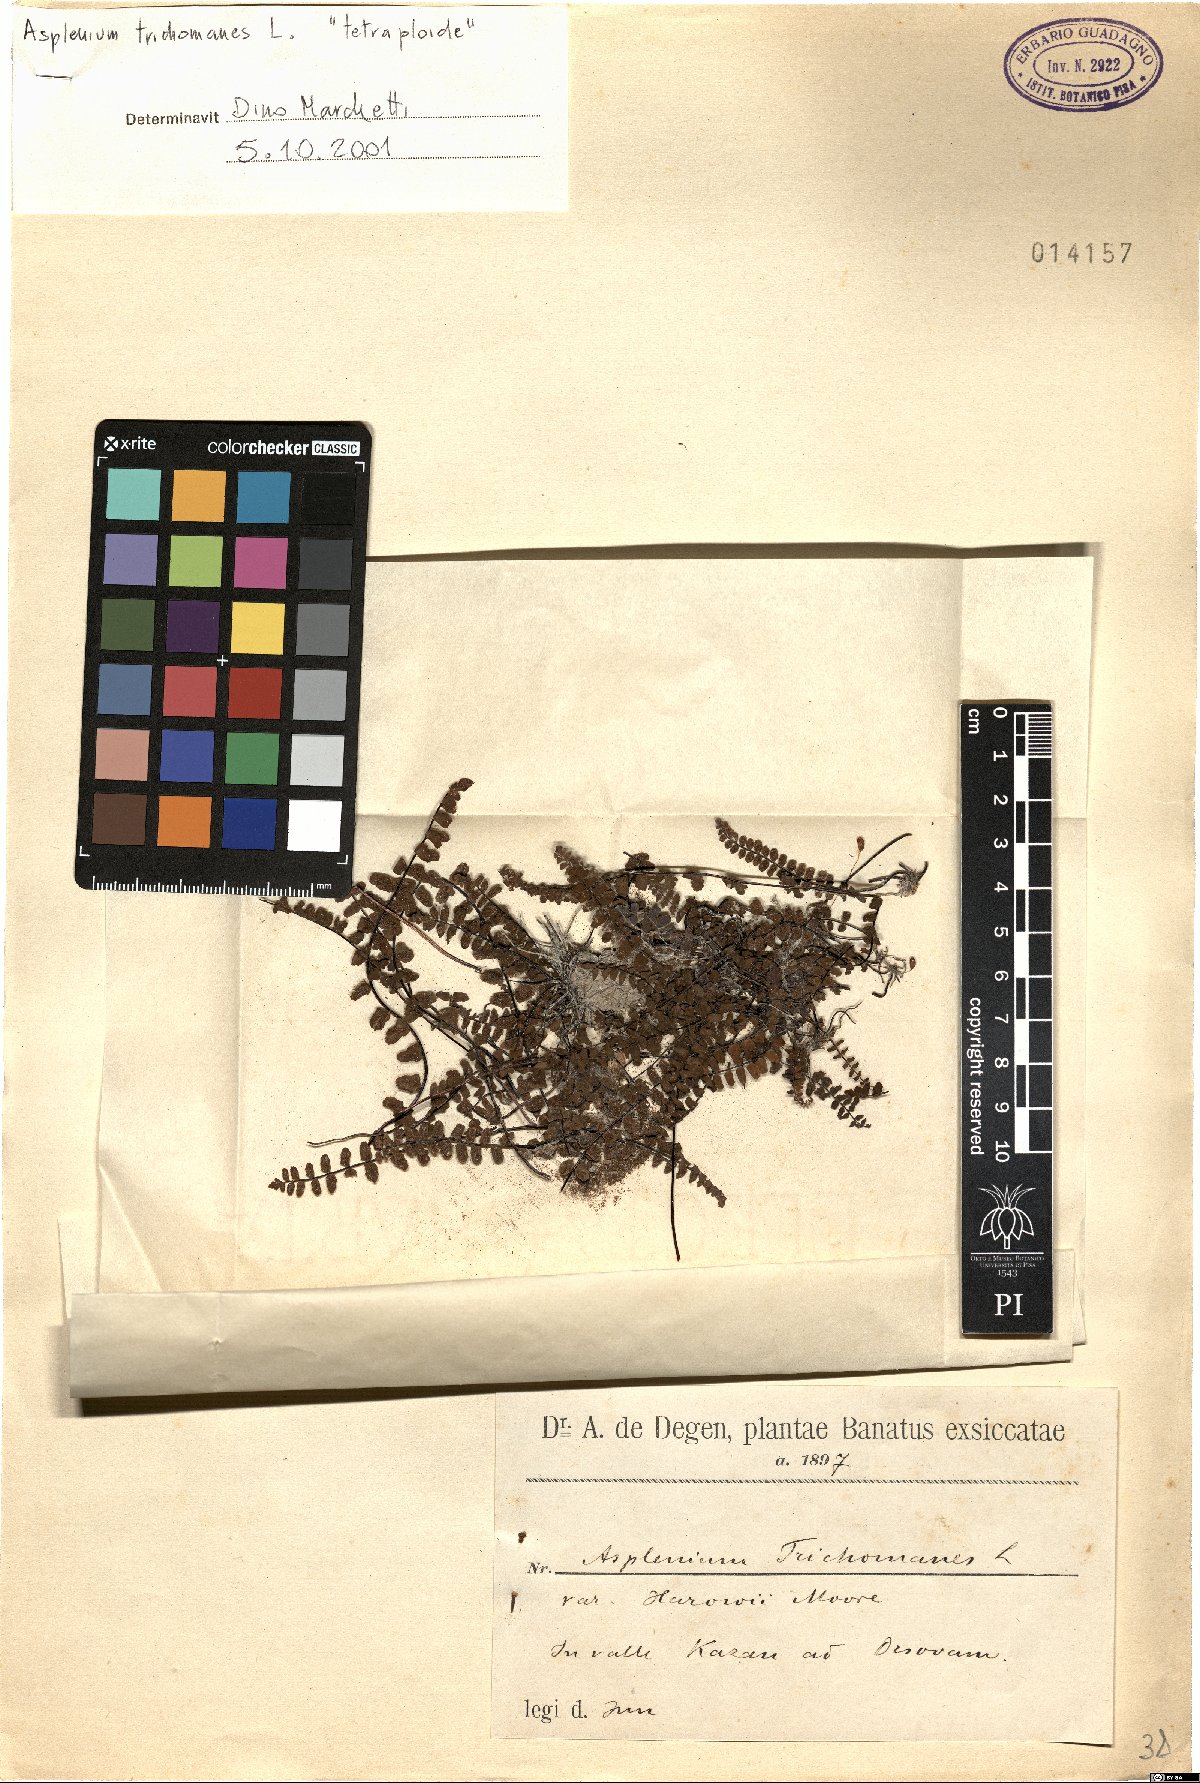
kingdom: Plantae
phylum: Tracheophyta
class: Polypodiopsida
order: Polypodiales
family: Aspleniaceae
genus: Asplenium
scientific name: Asplenium trichomanes
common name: Maidenhair spleenwort
